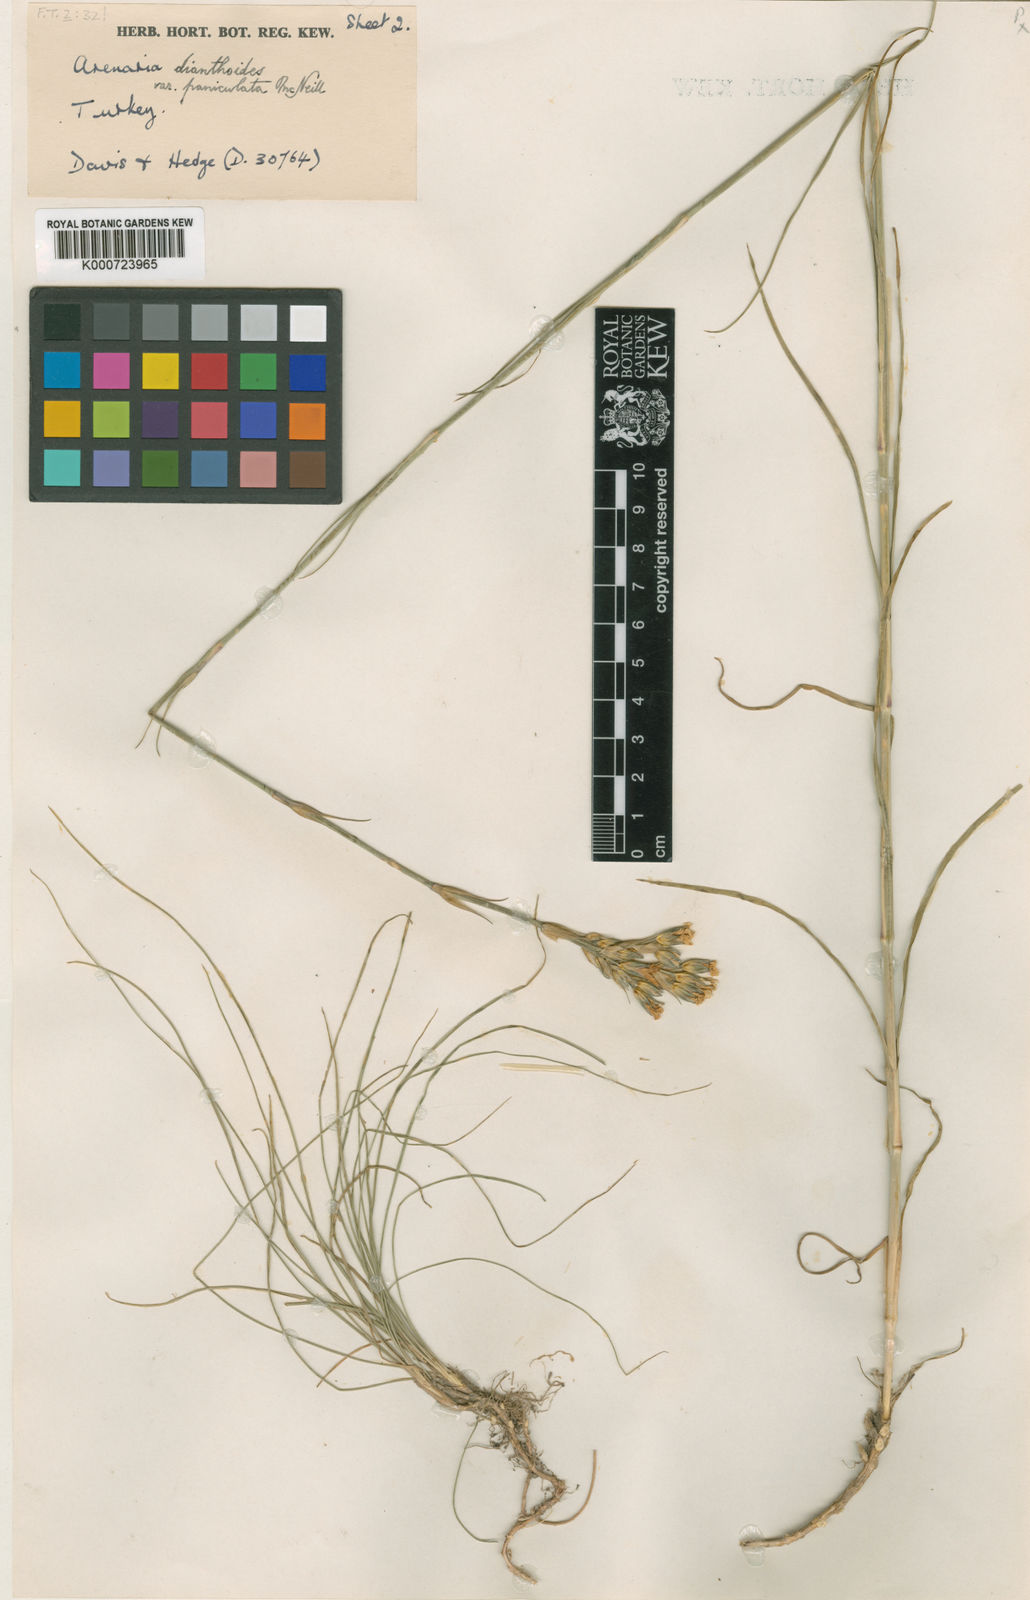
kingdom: Plantae
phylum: Tracheophyta
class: Magnoliopsida
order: Caryophyllales
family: Caryophyllaceae
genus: Arenaria
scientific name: Arenaria
